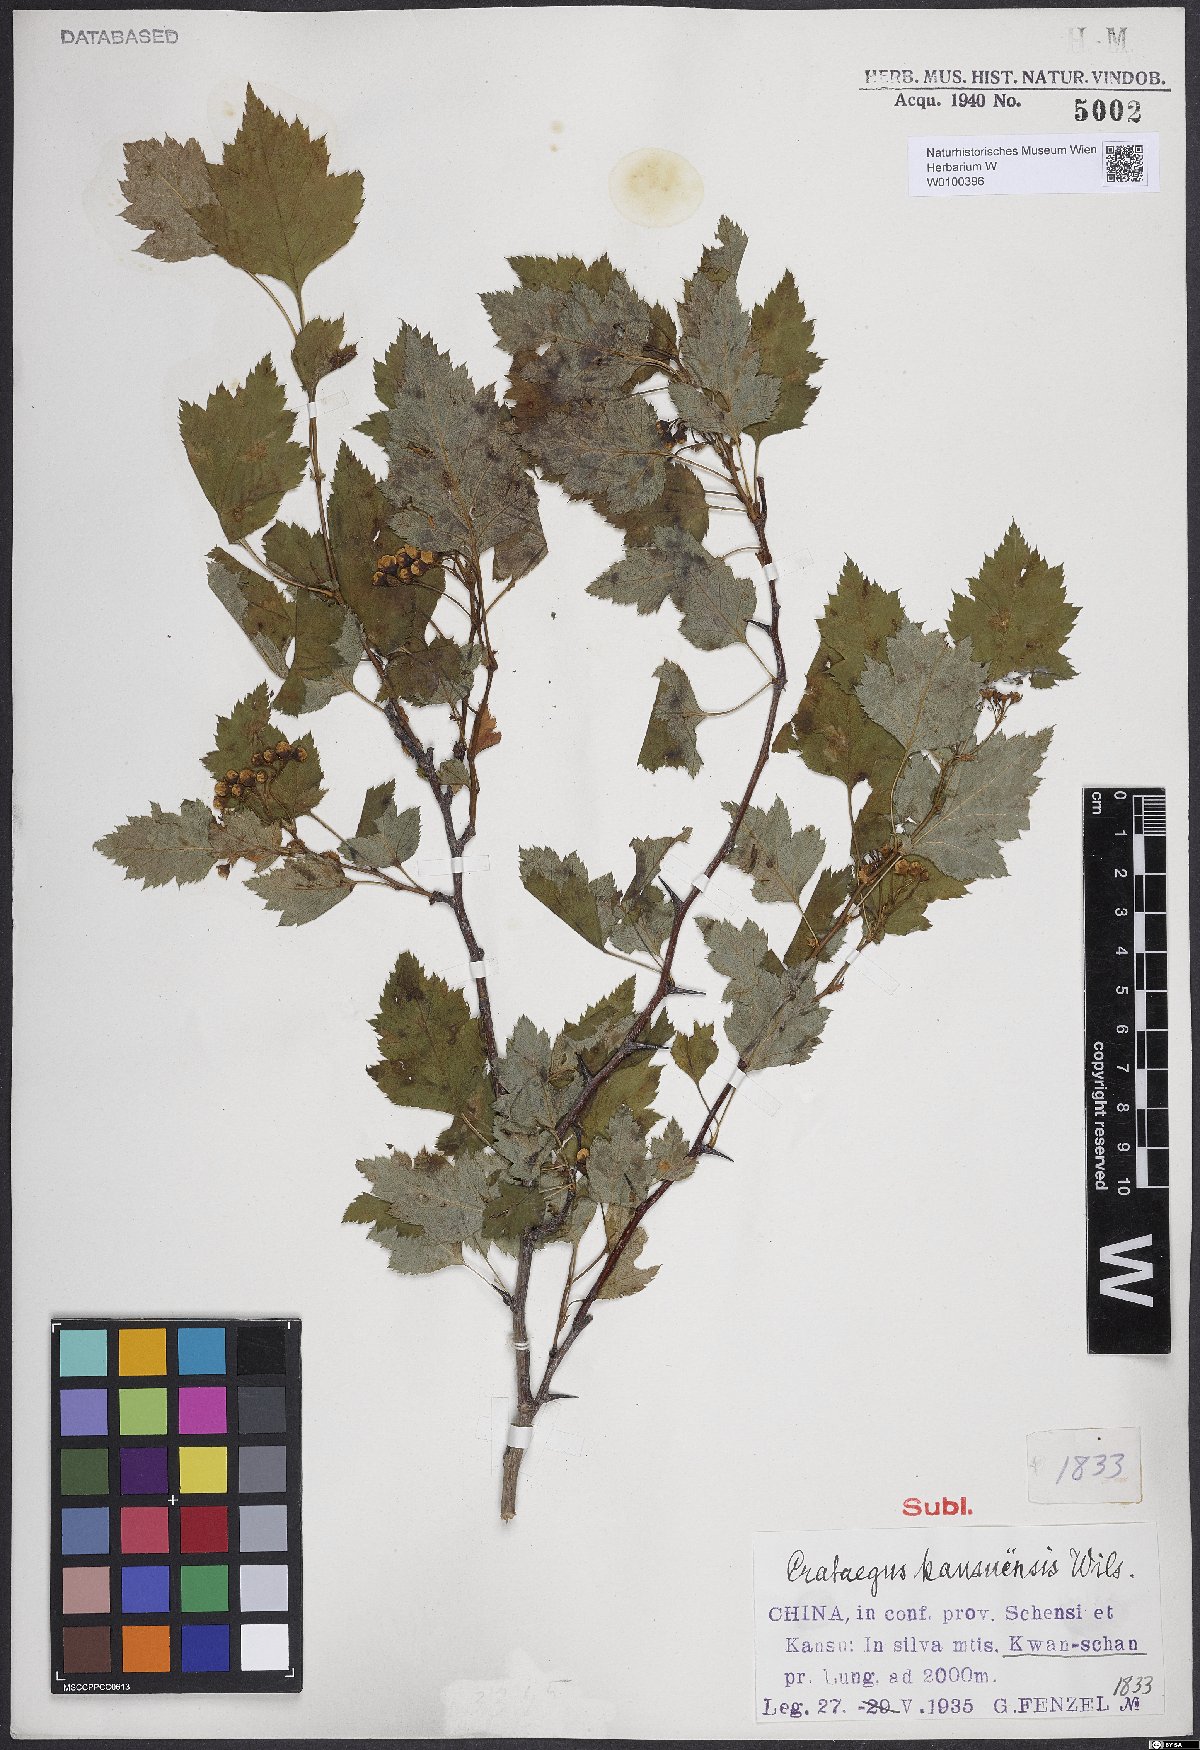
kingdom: Plantae
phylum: Tracheophyta
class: Magnoliopsida
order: Rosales
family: Rosaceae
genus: Crataegus
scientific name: Crataegus kansuensis
